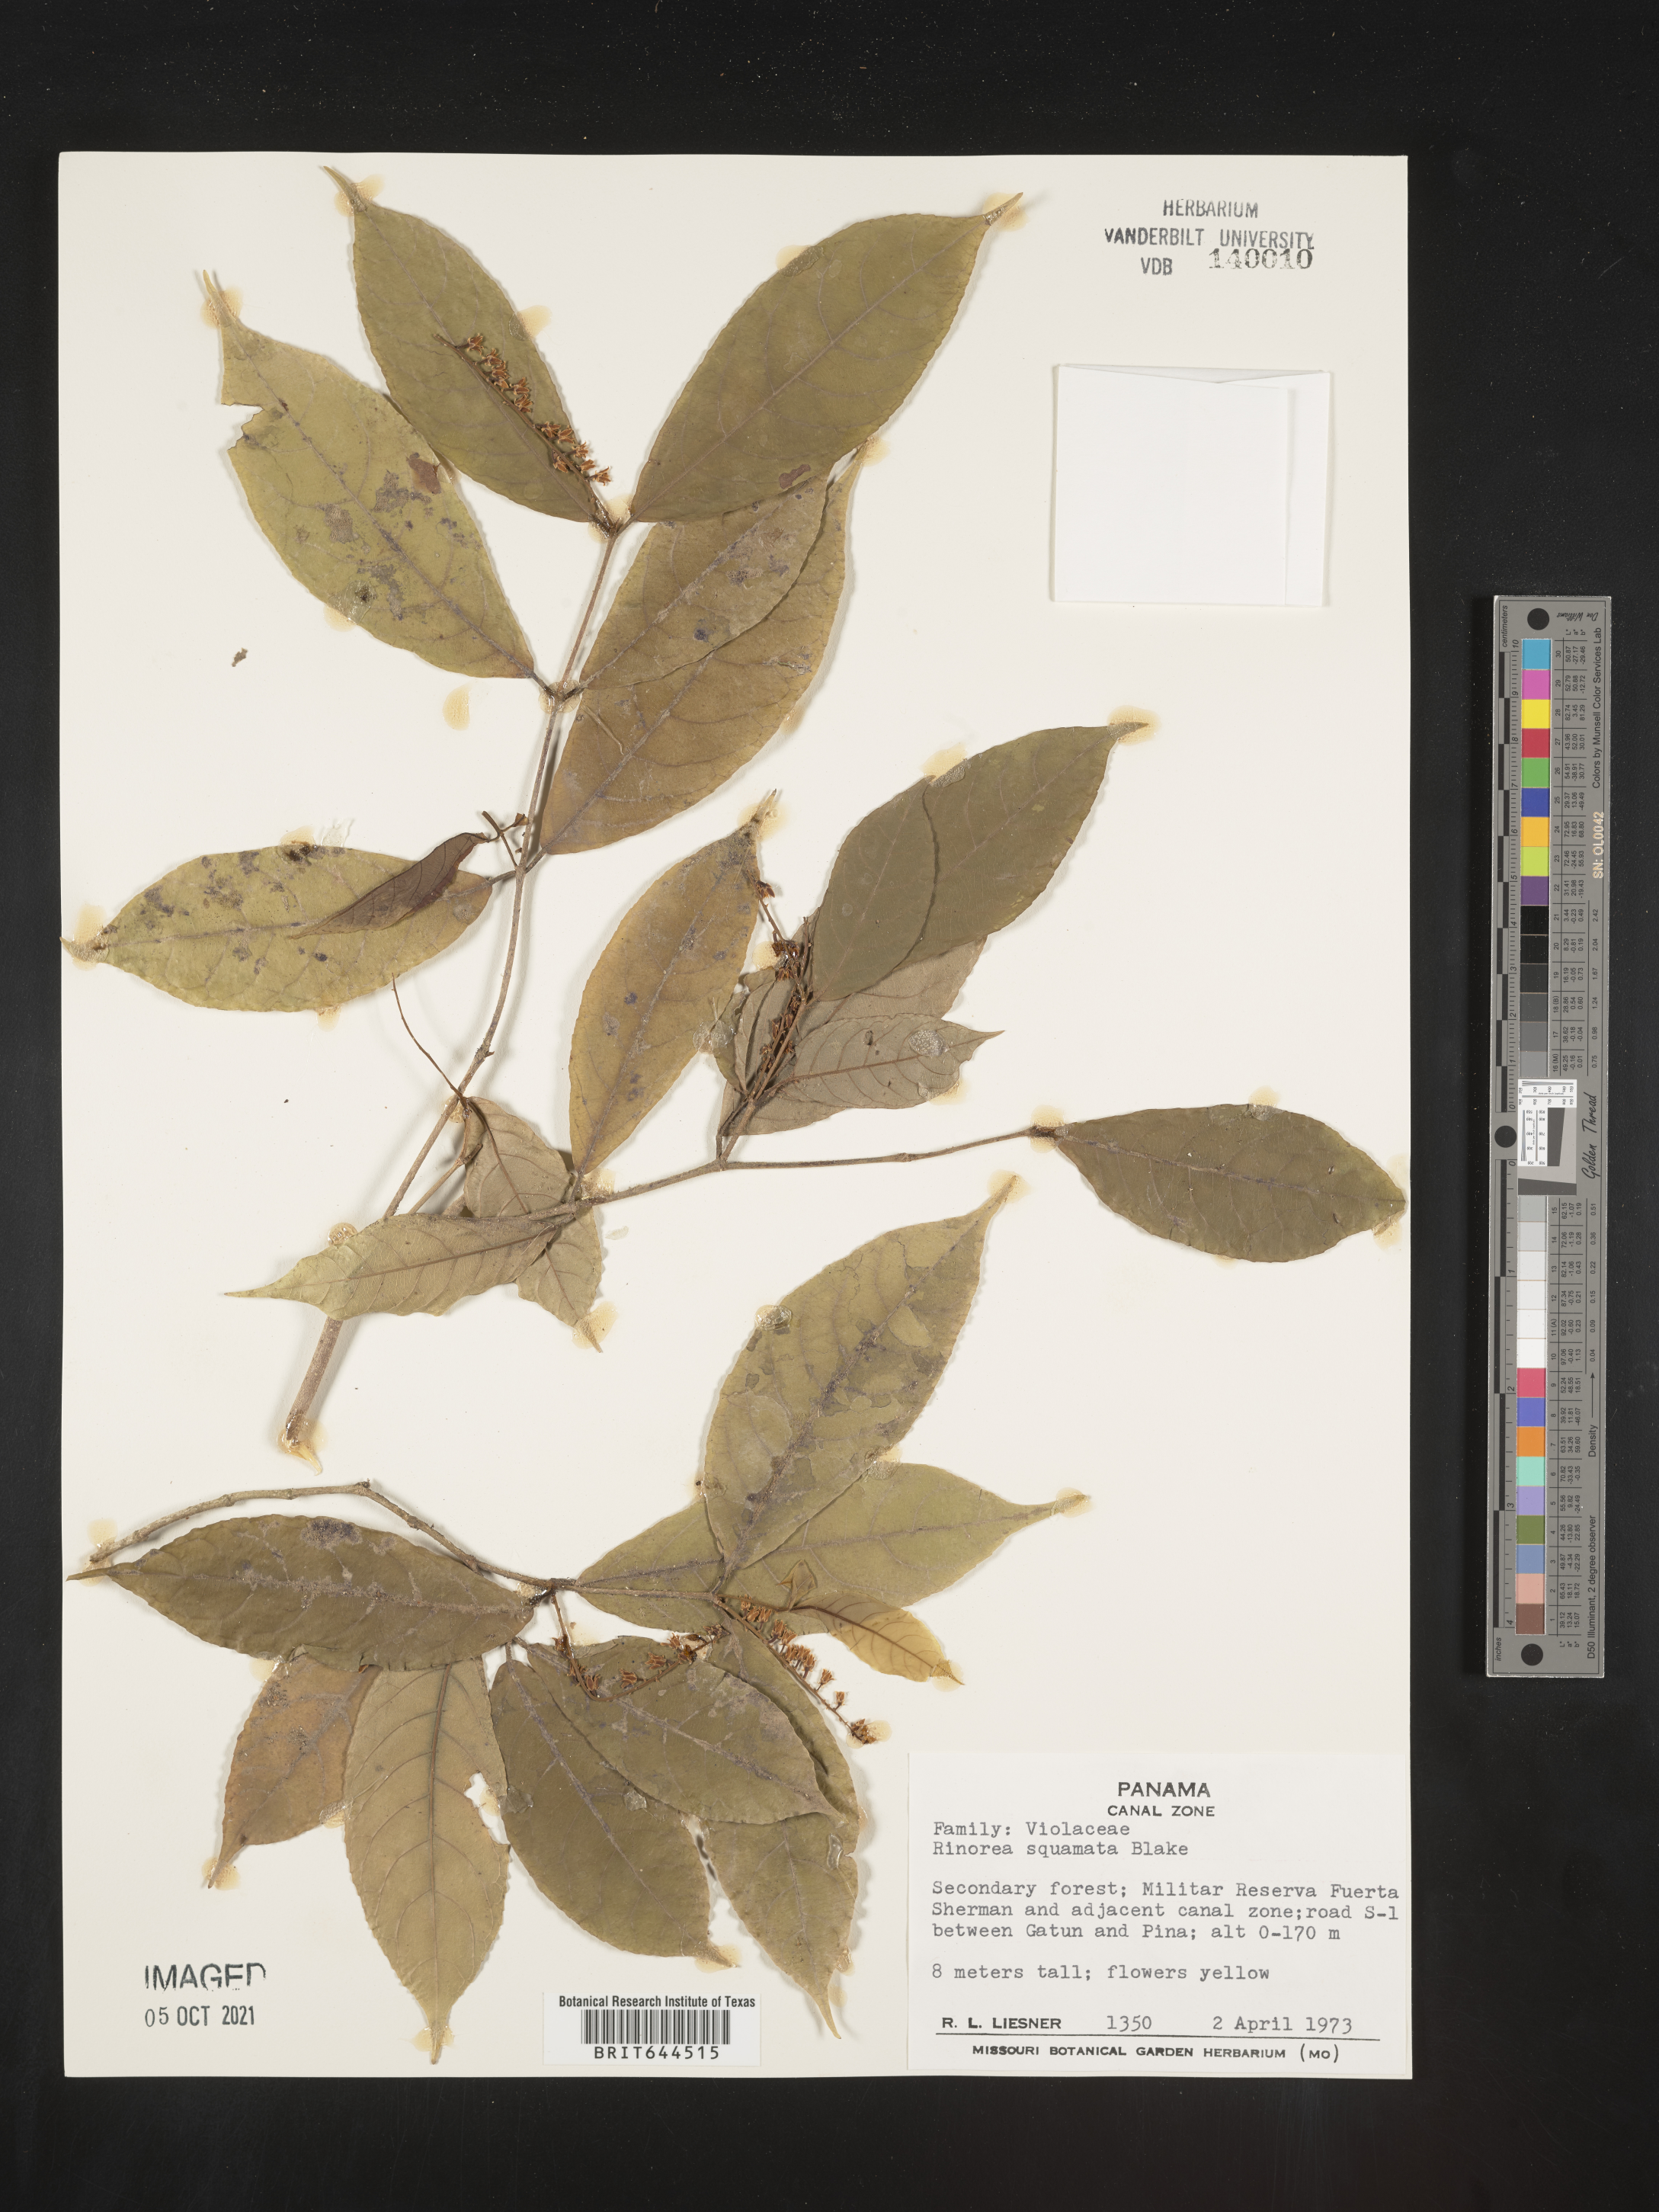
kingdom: Plantae
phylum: Tracheophyta
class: Magnoliopsida
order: Malpighiales
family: Violaceae
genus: Rinorea
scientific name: Rinorea
